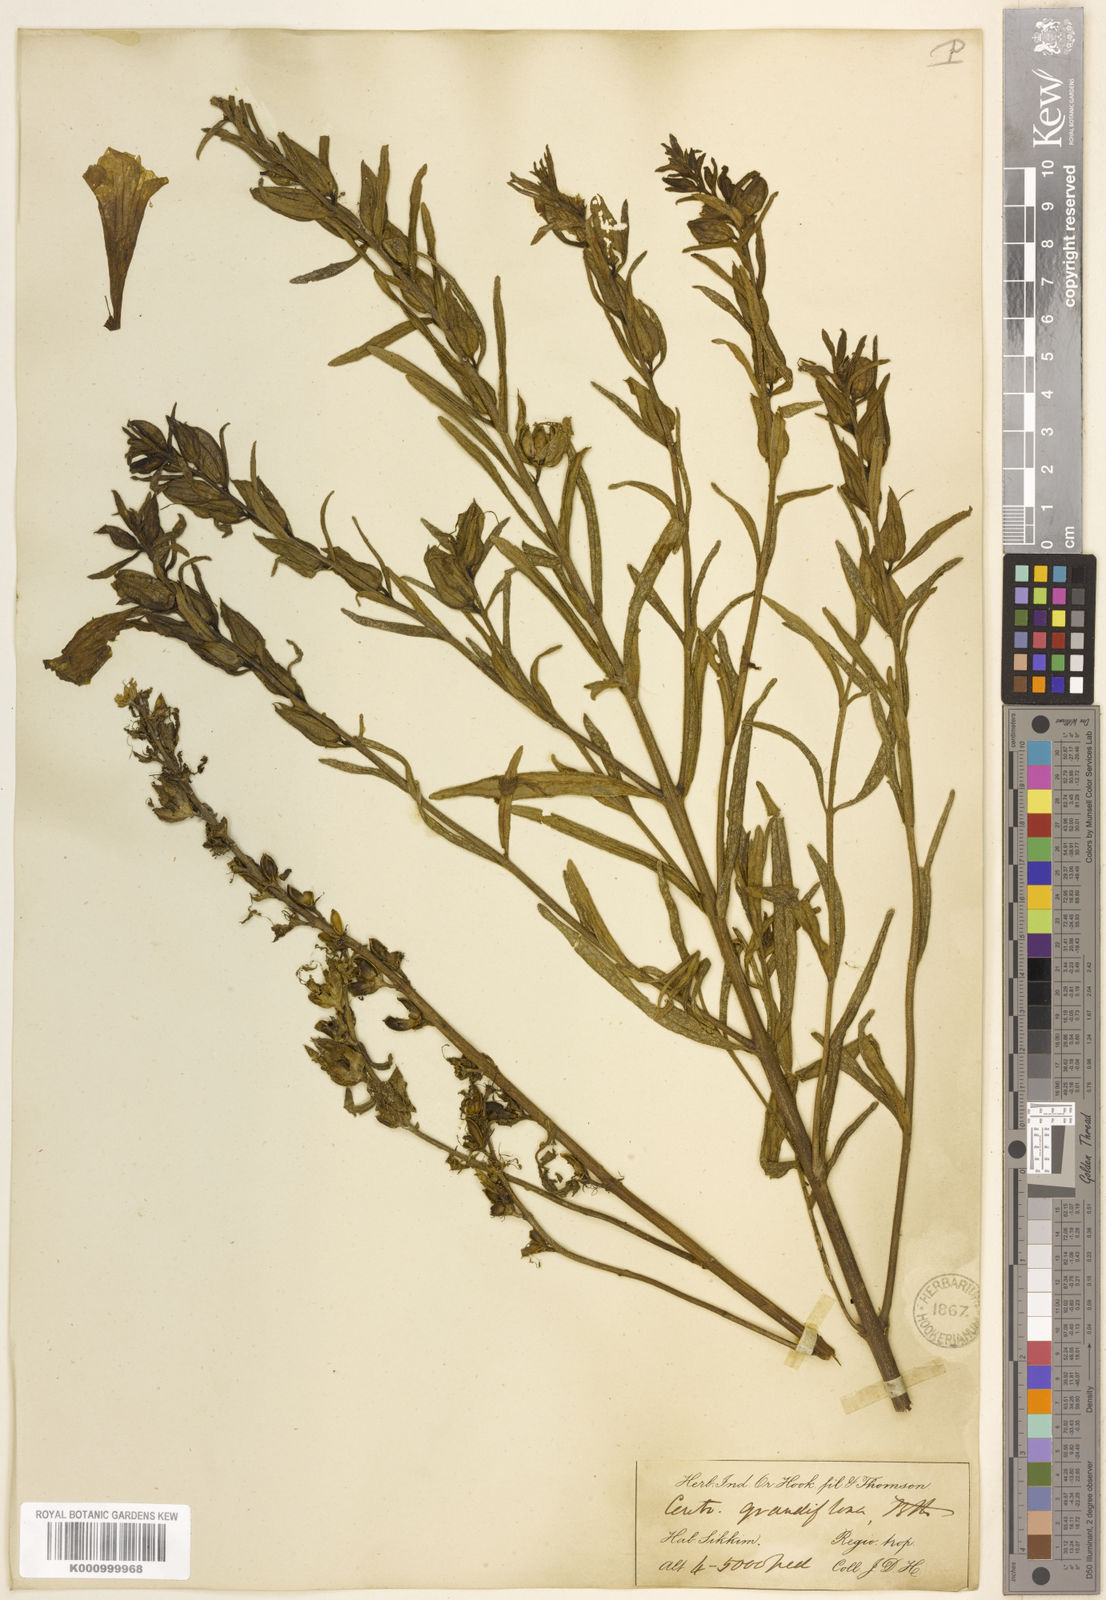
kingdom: Plantae
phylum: Tracheophyta
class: Magnoliopsida
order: Lamiales
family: Orobanchaceae
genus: Centranthera
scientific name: Centranthera grandiflora
